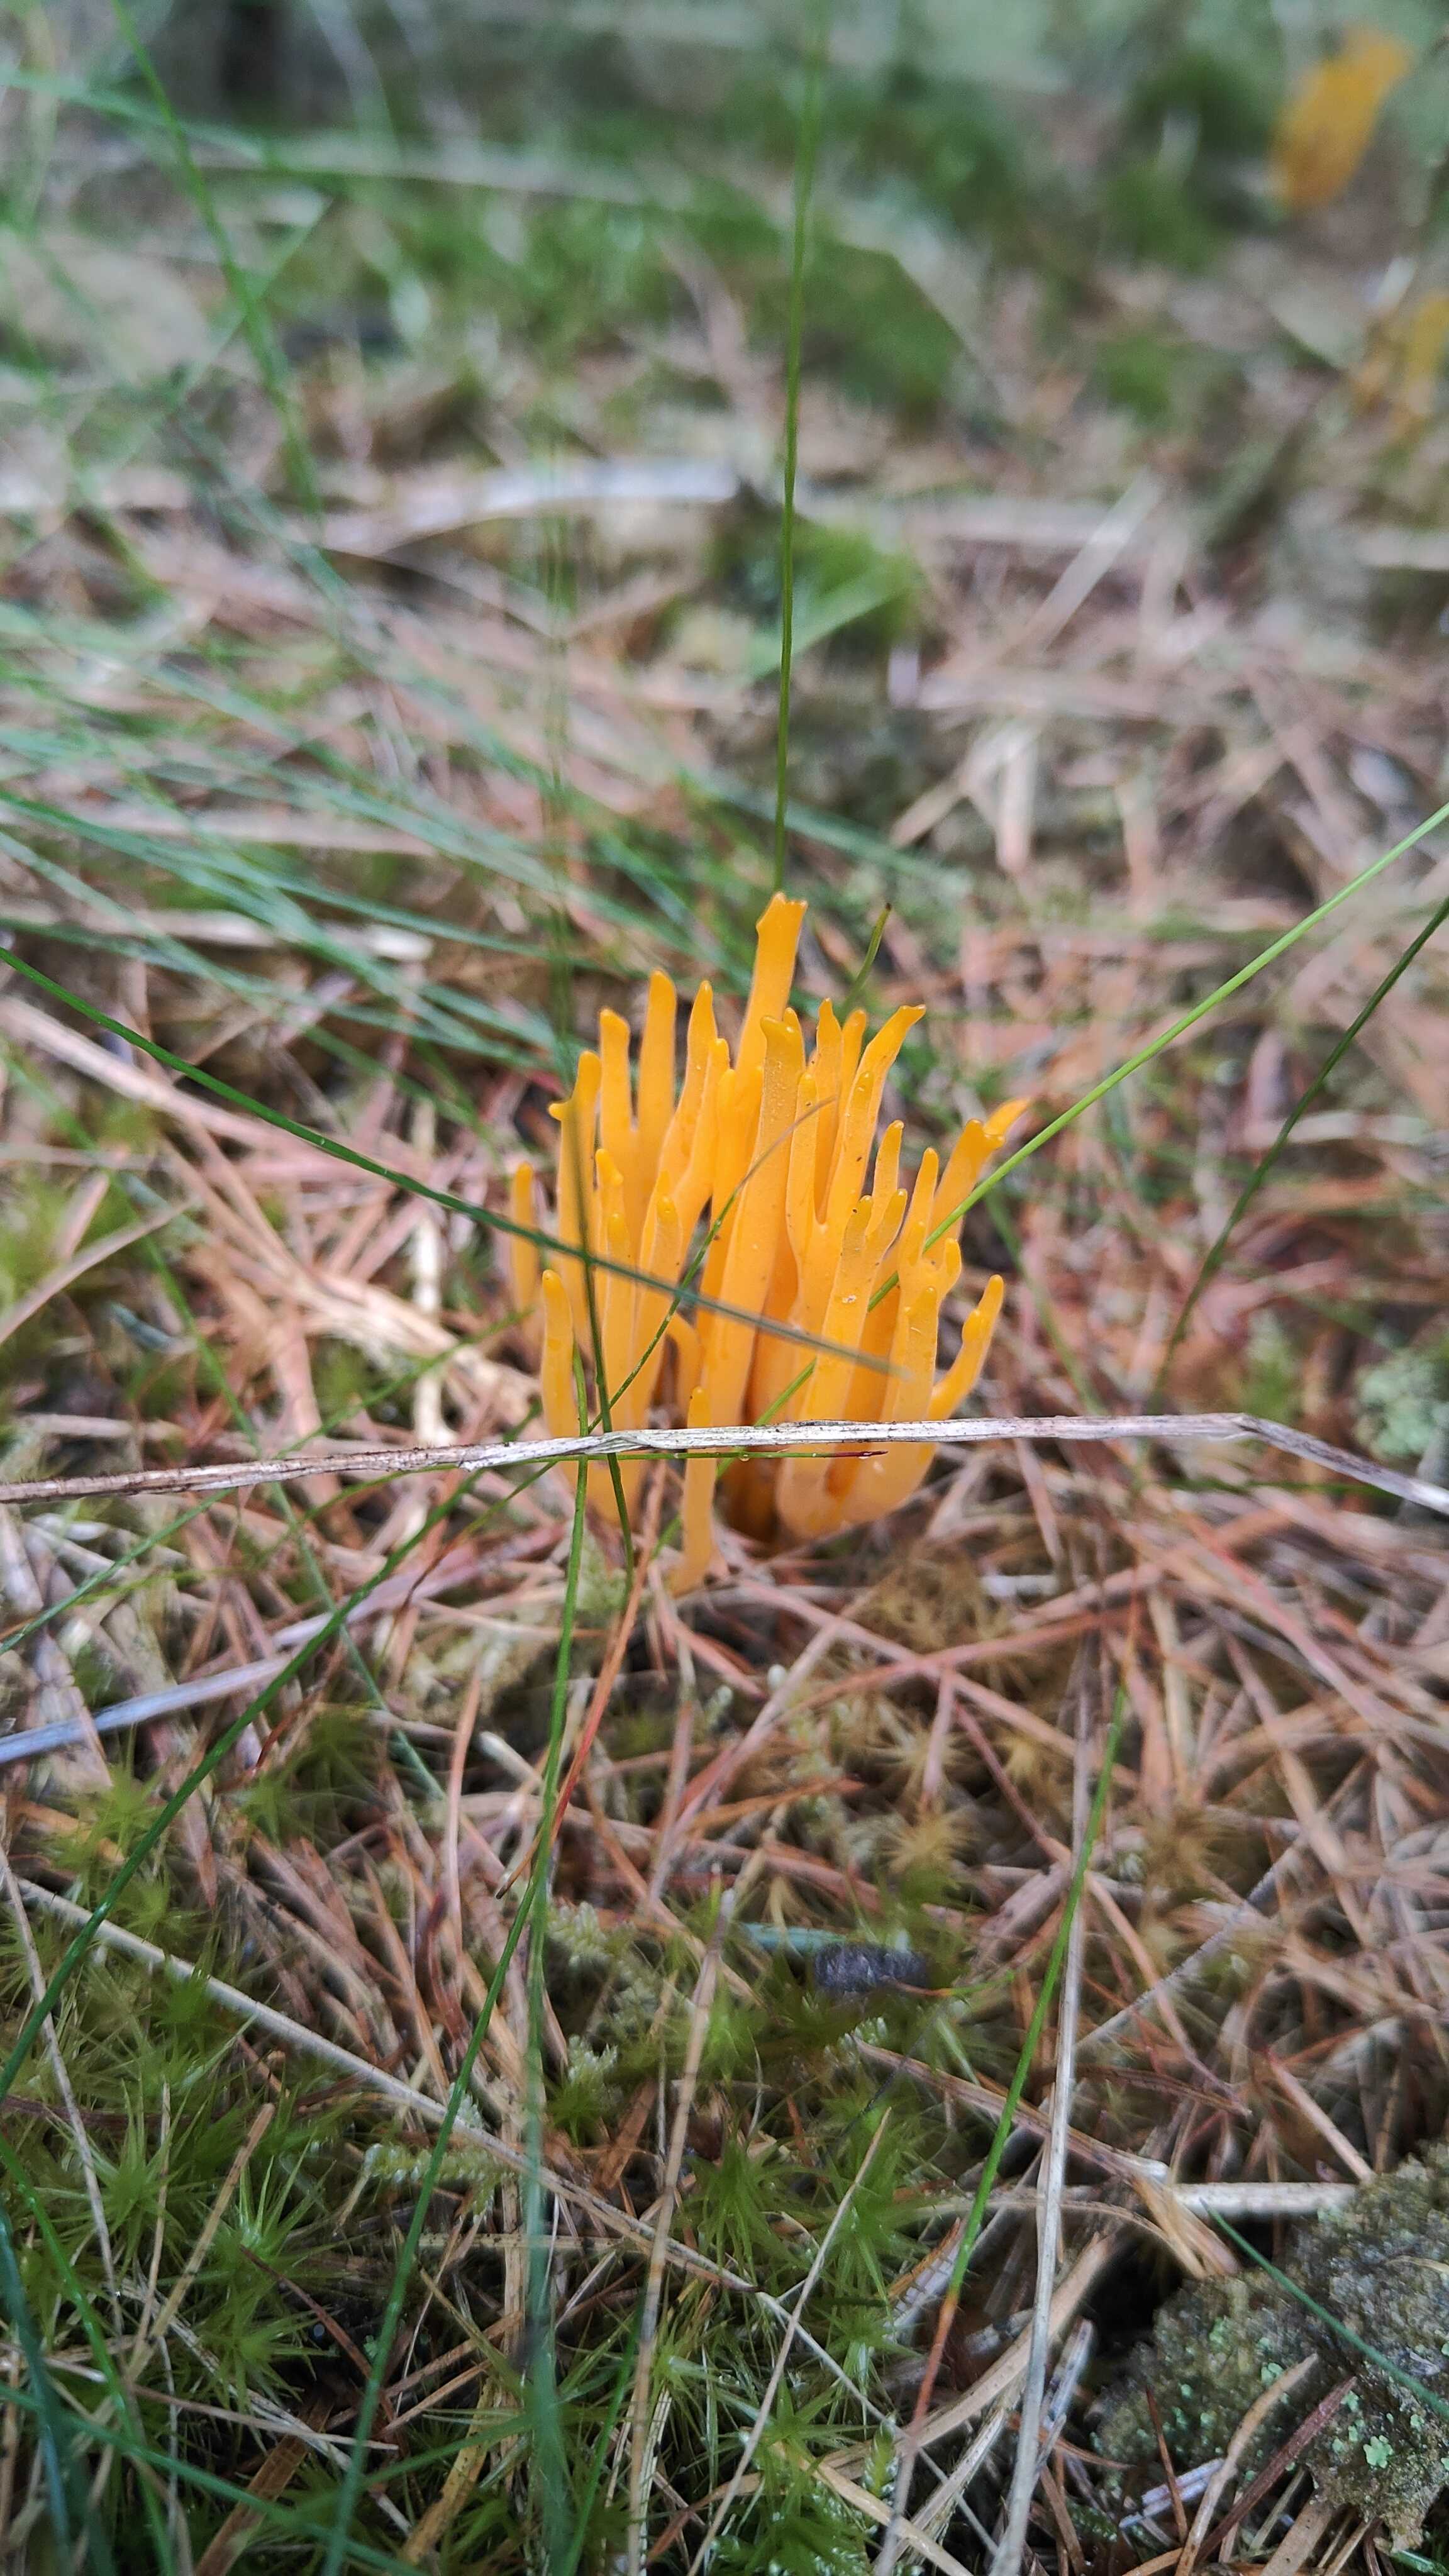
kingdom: Fungi
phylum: Basidiomycota
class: Dacrymycetes
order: Dacrymycetales
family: Dacrymycetaceae
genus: Calocera
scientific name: Calocera viscosa
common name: almindelig guldgaffel
